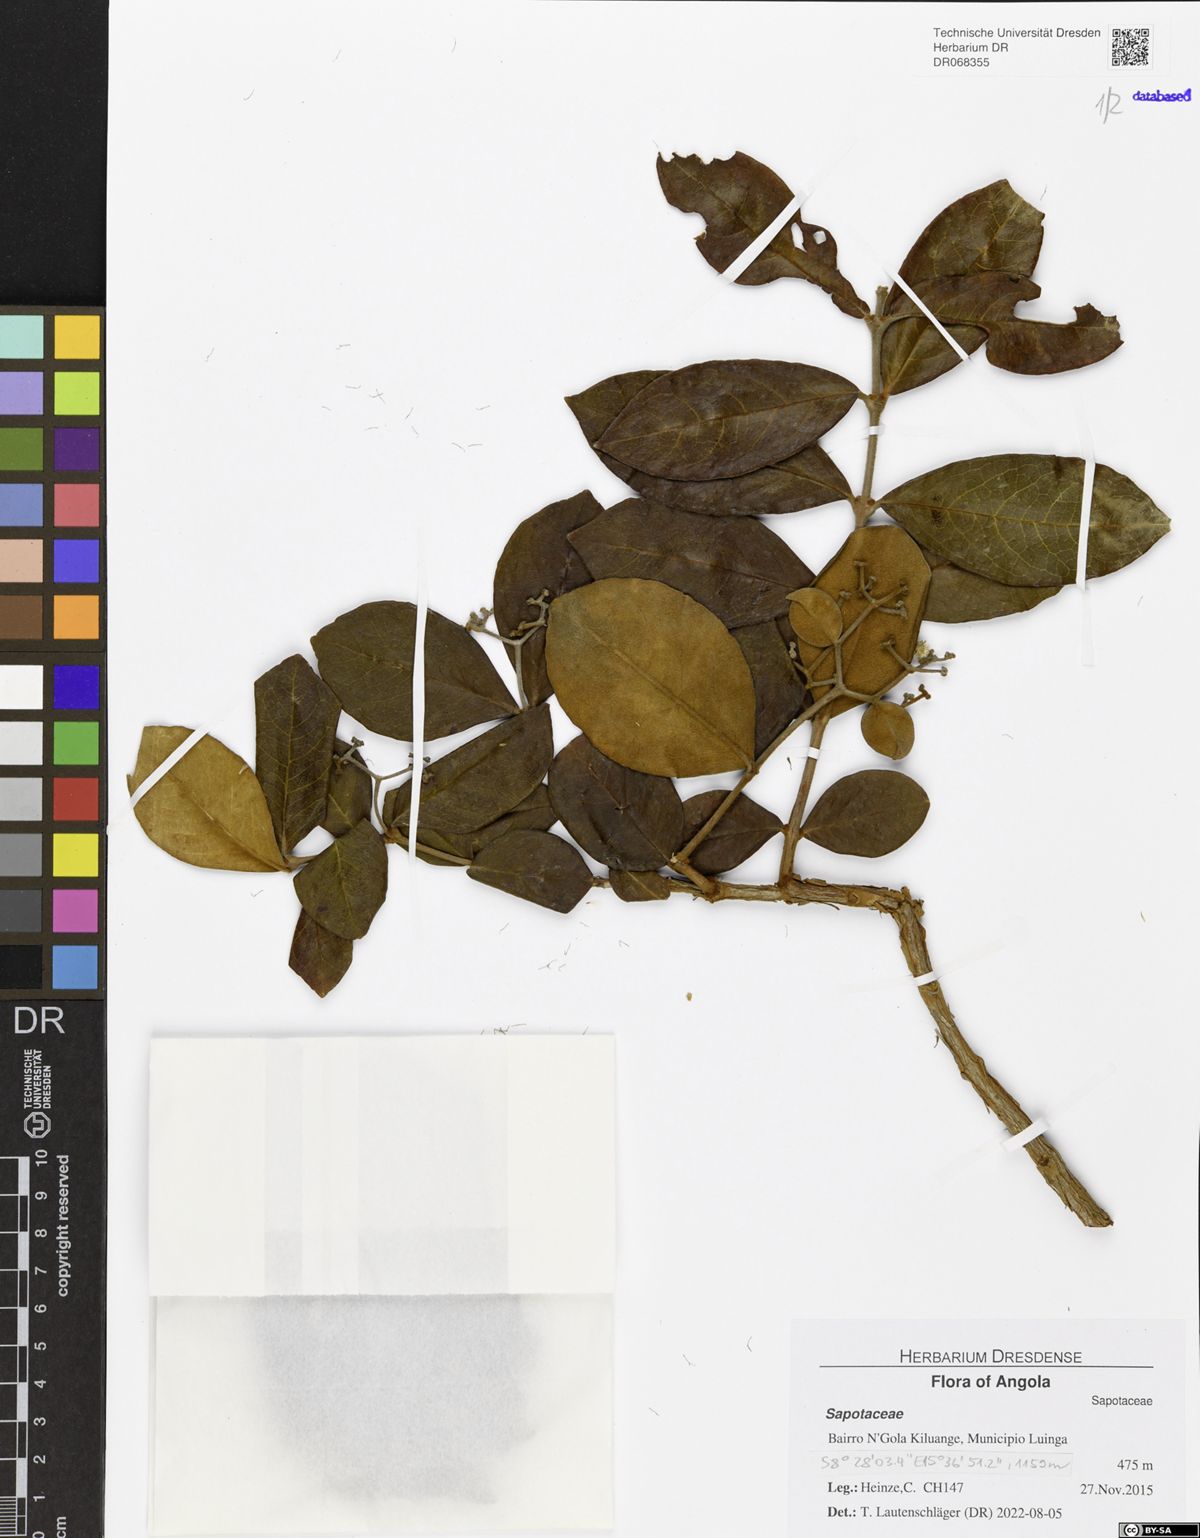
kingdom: Plantae
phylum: Tracheophyta
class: Magnoliopsida
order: Ericales
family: Sapotaceae
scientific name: Sapotaceae
